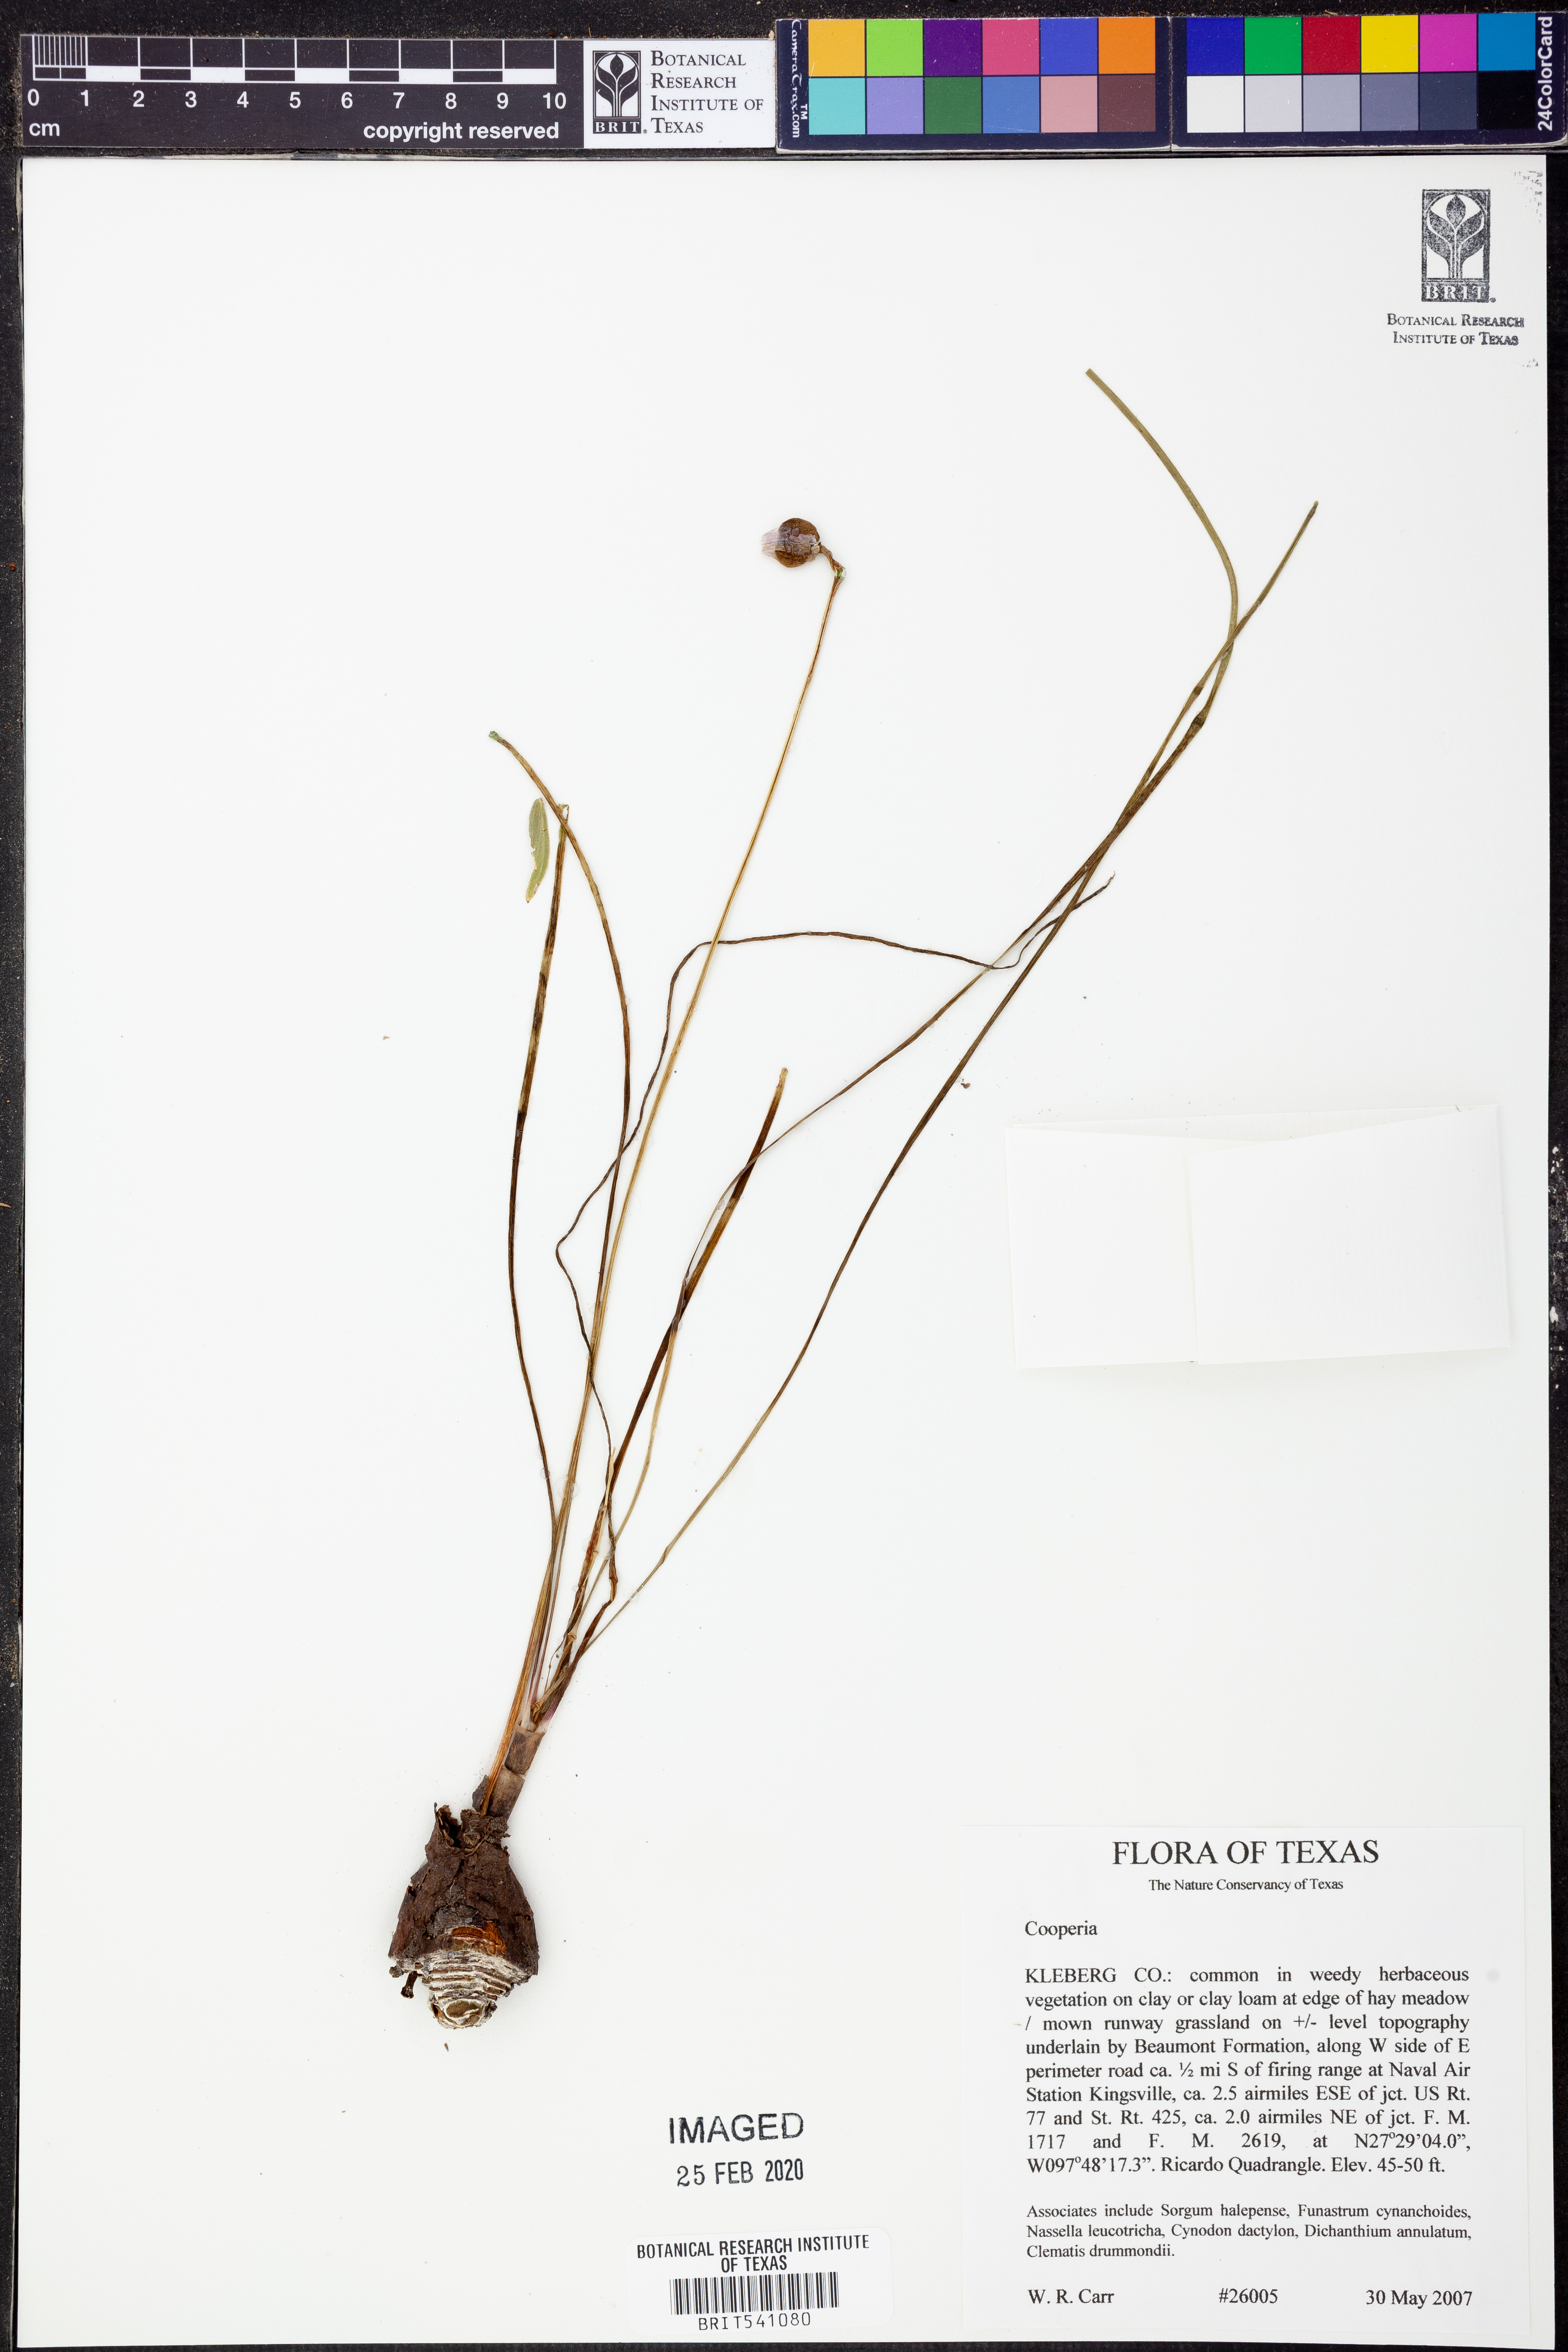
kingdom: Plantae
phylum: Tracheophyta
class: Liliopsida
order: Asparagales
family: Amaryllidaceae
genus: Zephyranthes
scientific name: Zephyranthes Cooperia spec
